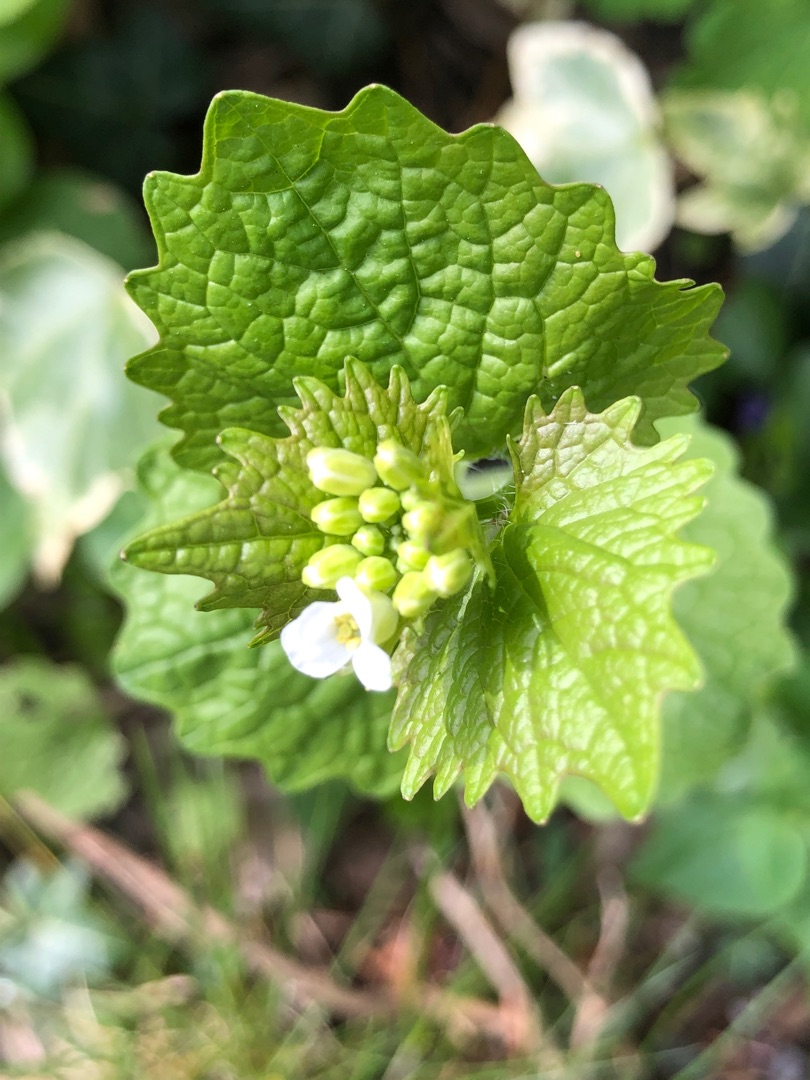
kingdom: Plantae
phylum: Tracheophyta
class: Magnoliopsida
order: Brassicales
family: Brassicaceae
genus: Alliaria
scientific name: Alliaria petiolata
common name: Løgkarse
